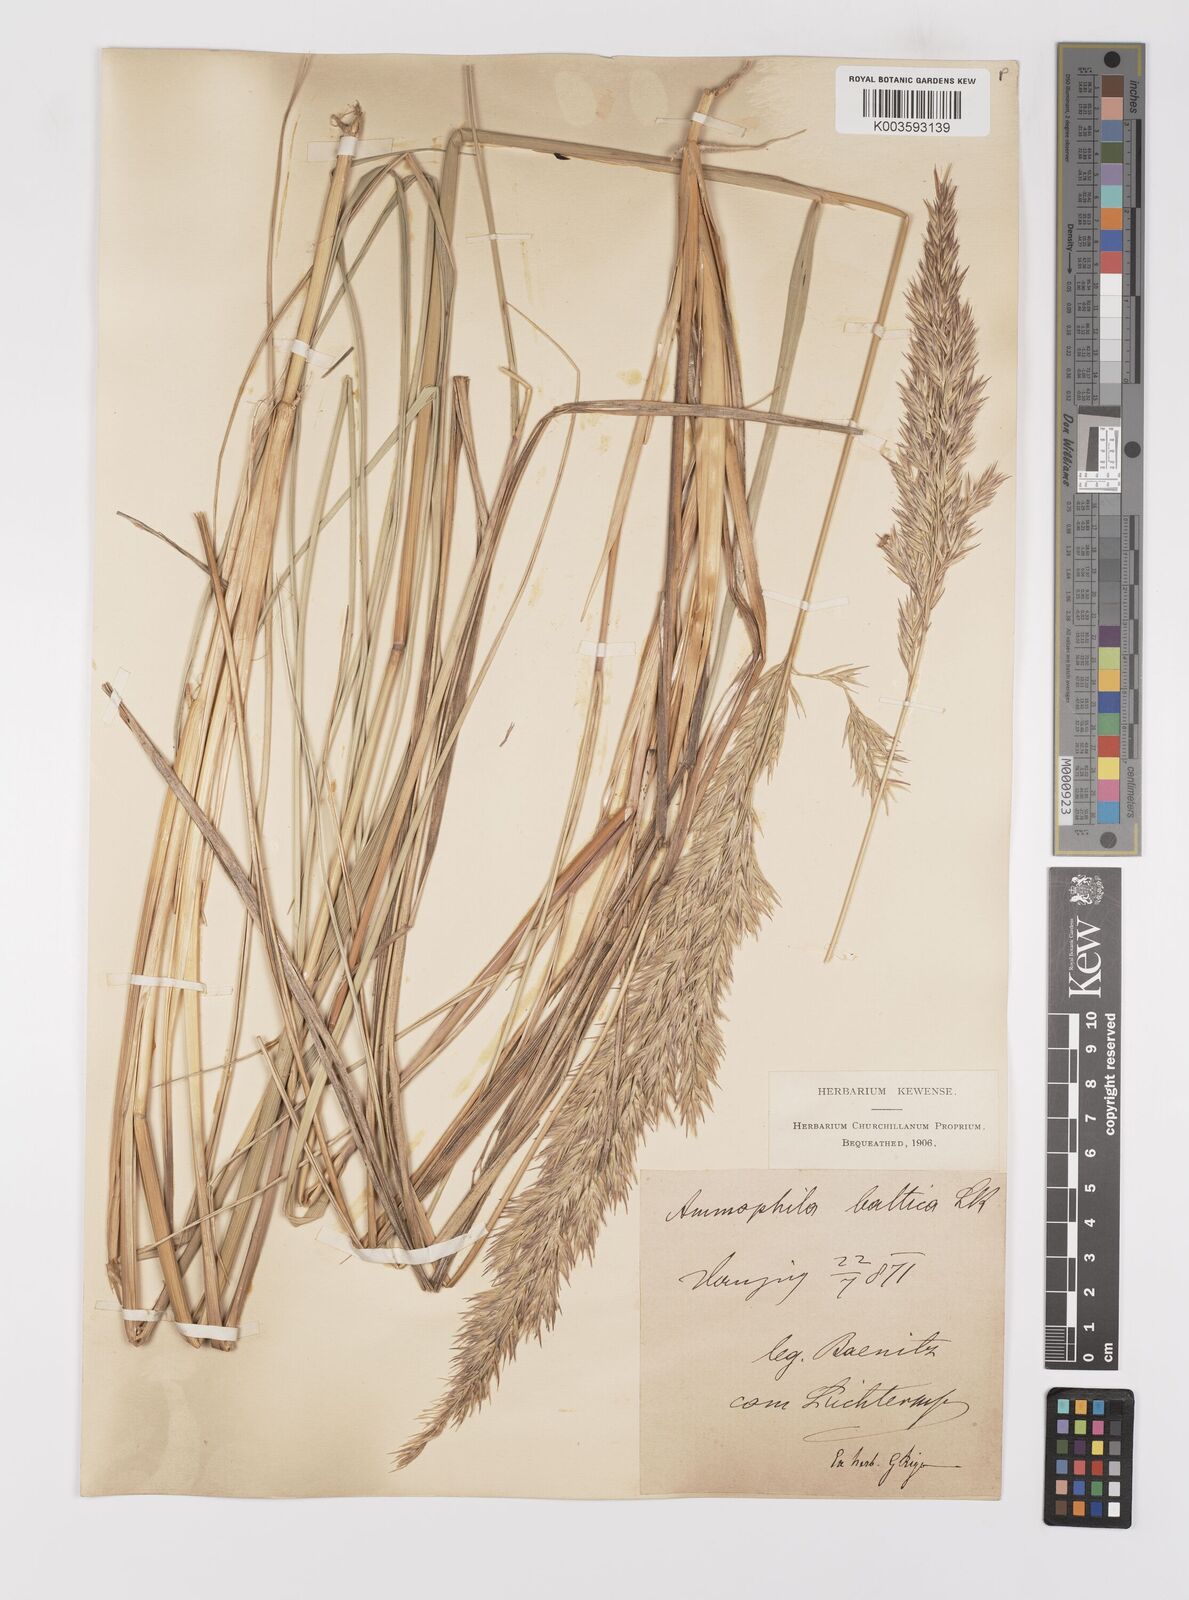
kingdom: Plantae
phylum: Tracheophyta
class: Liliopsida
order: Poales
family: Poaceae
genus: Calamagrostis
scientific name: Calamagrostis baltica
